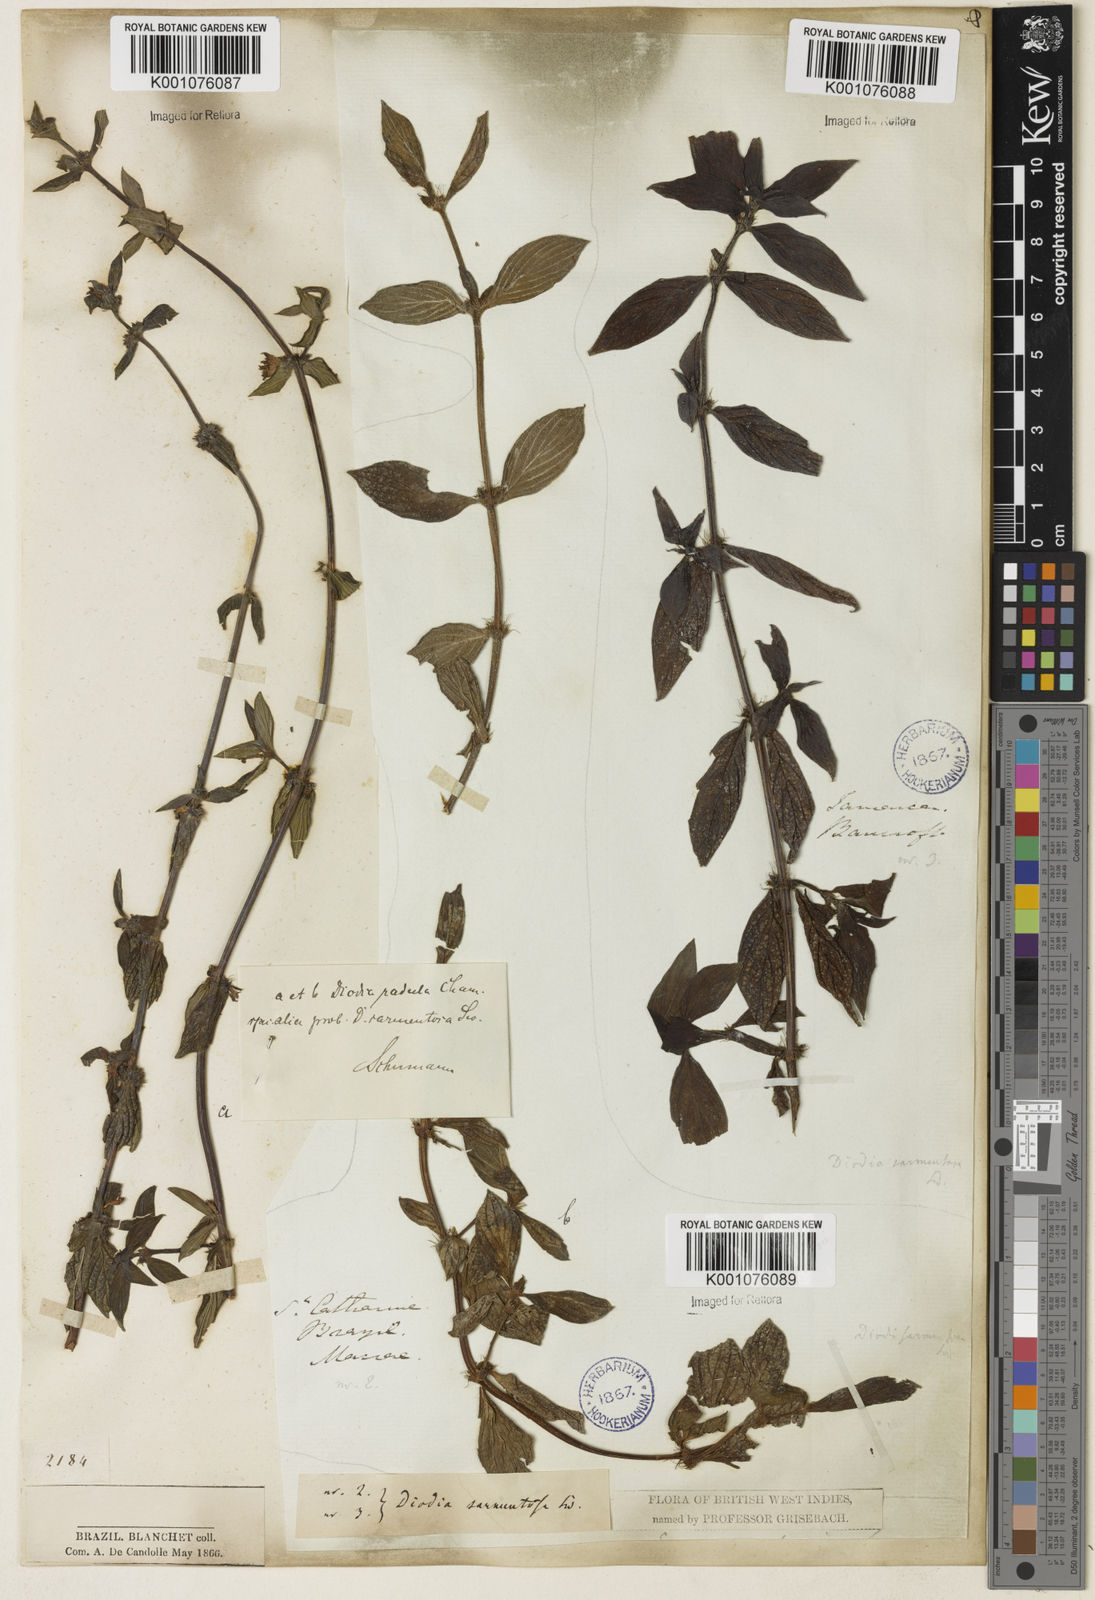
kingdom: Plantae
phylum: Tracheophyta
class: Magnoliopsida
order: Gentianales
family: Rubiaceae
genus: Hexasepalum
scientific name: Hexasepalum radulum
